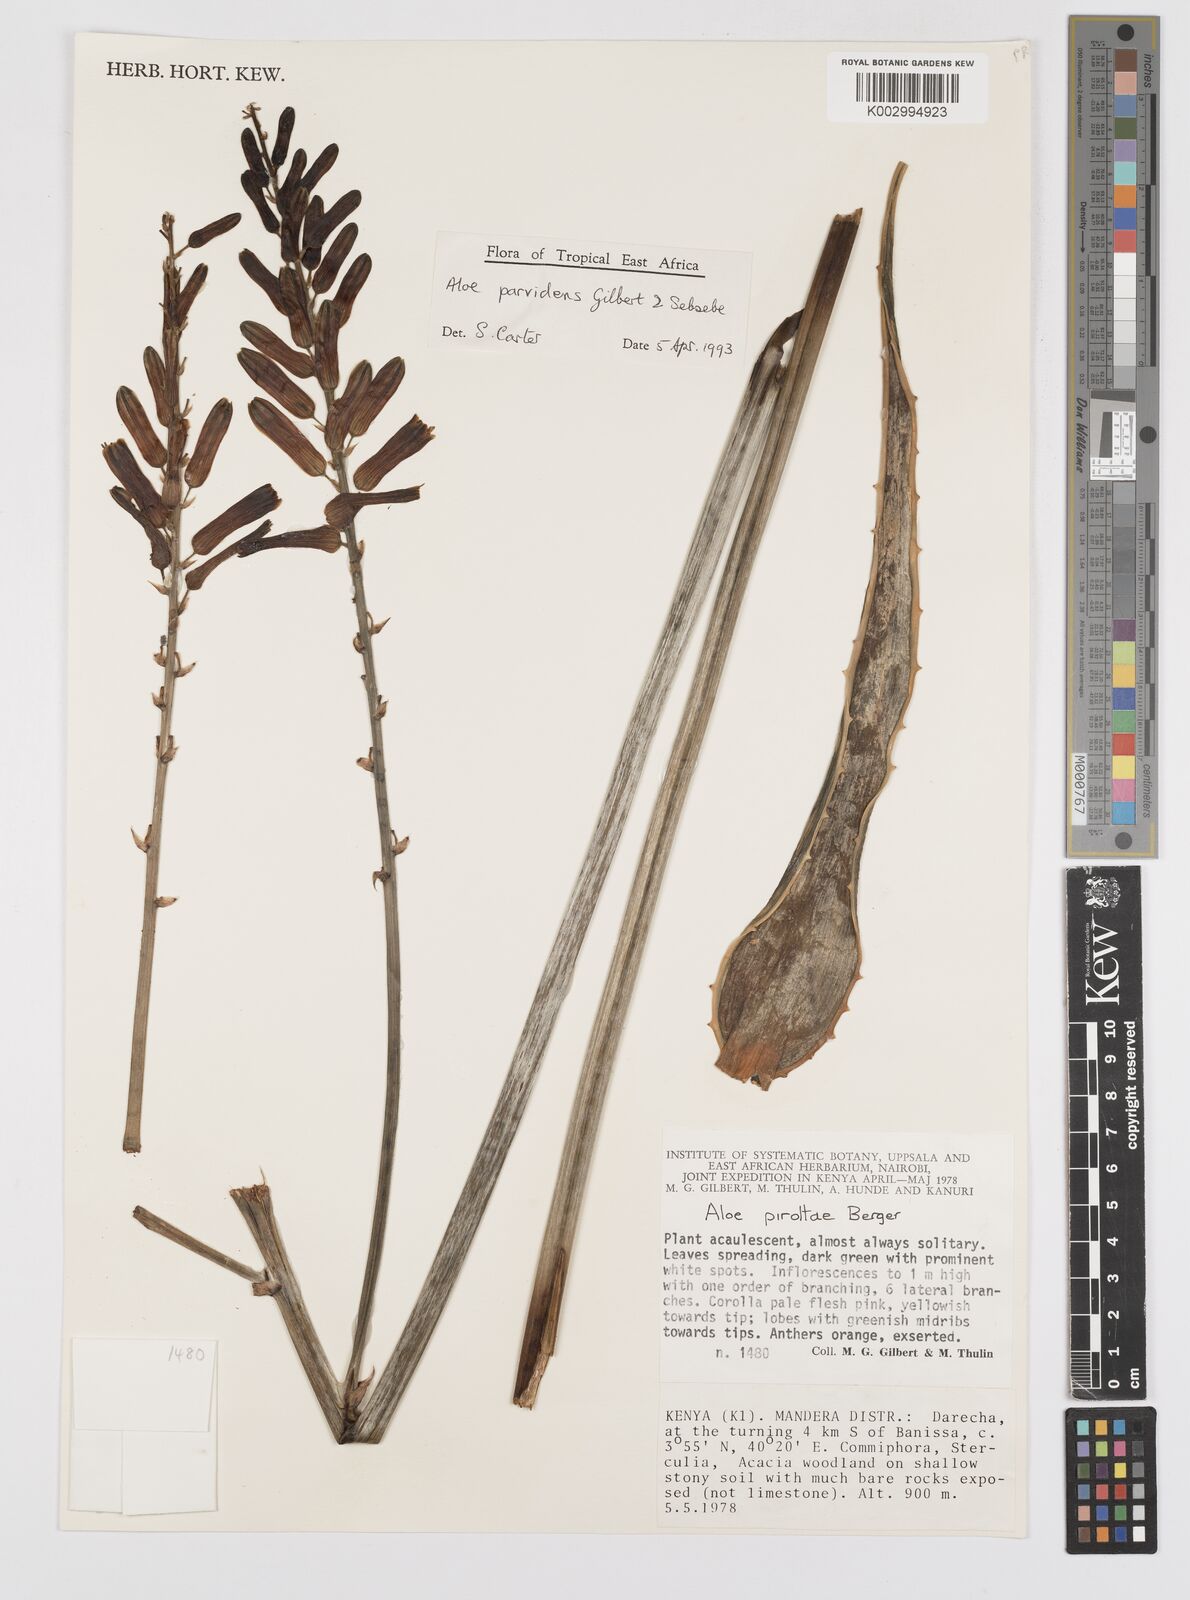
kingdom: Plantae
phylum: Tracheophyta
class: Liliopsida
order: Asparagales
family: Asphodelaceae
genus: Aloe
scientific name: Aloe parvidens
